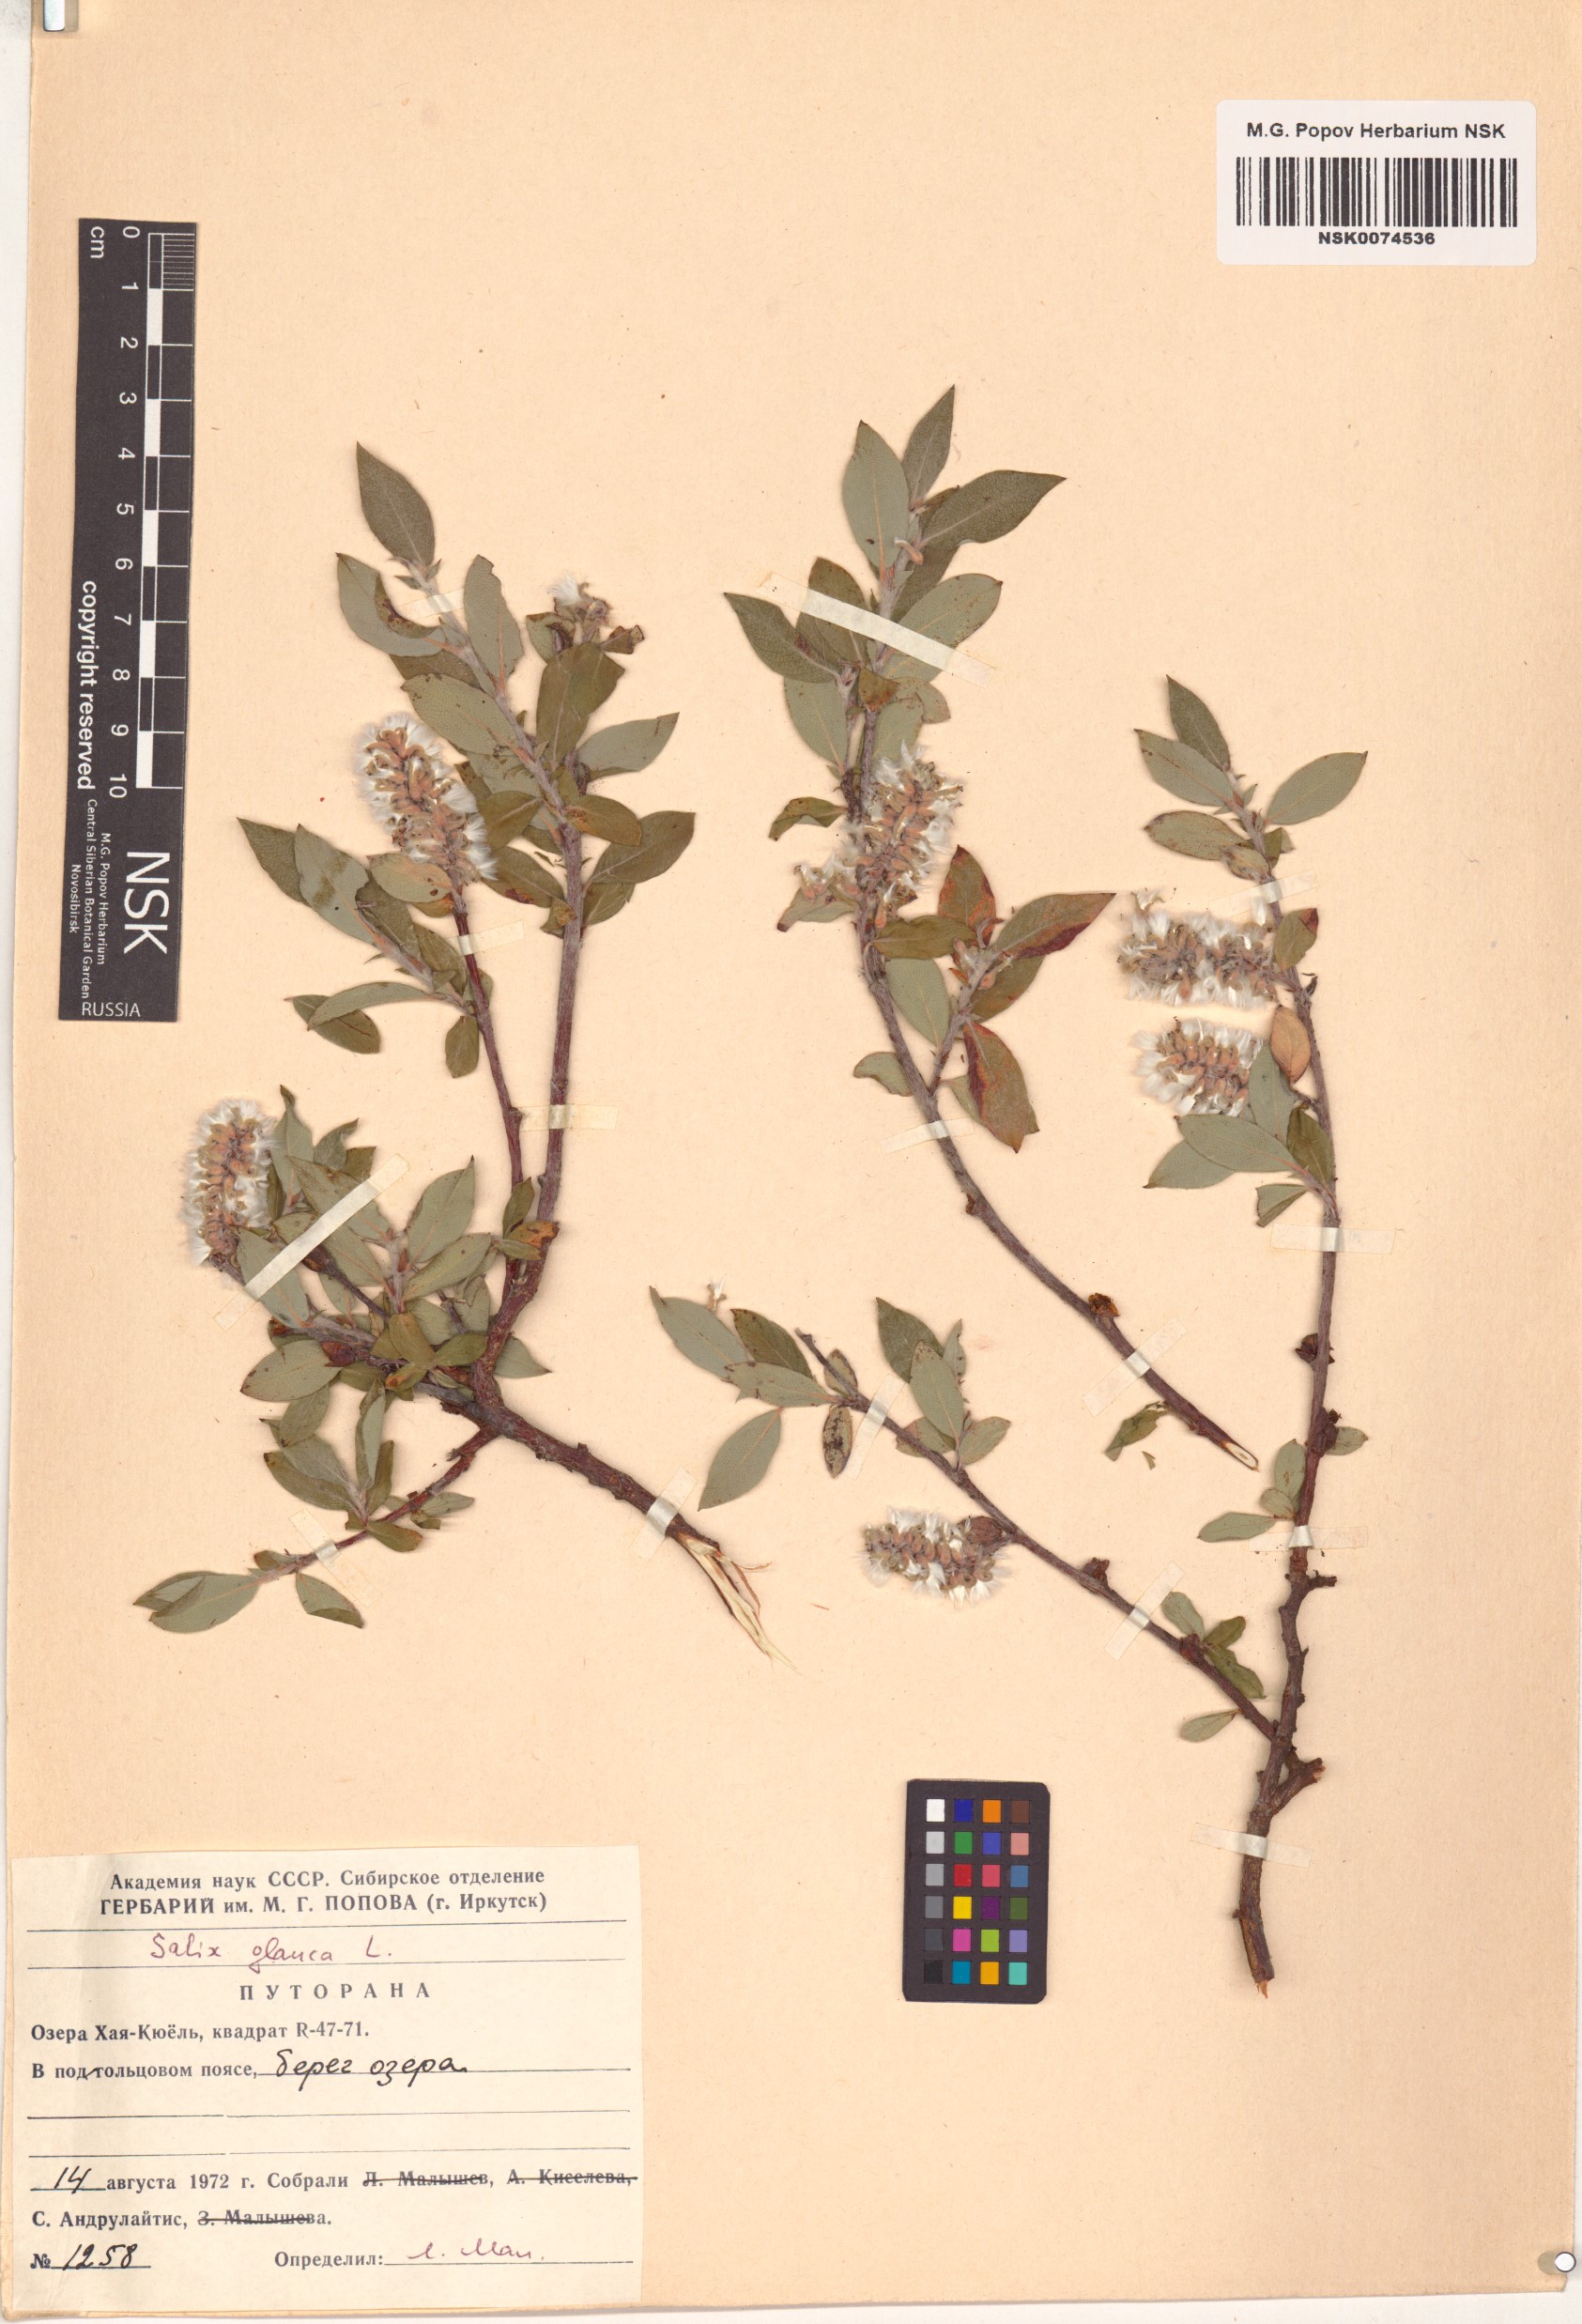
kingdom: Plantae
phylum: Tracheophyta
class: Magnoliopsida
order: Malpighiales
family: Salicaceae
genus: Salix
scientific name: Salix glauca
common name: Glaucous willow
